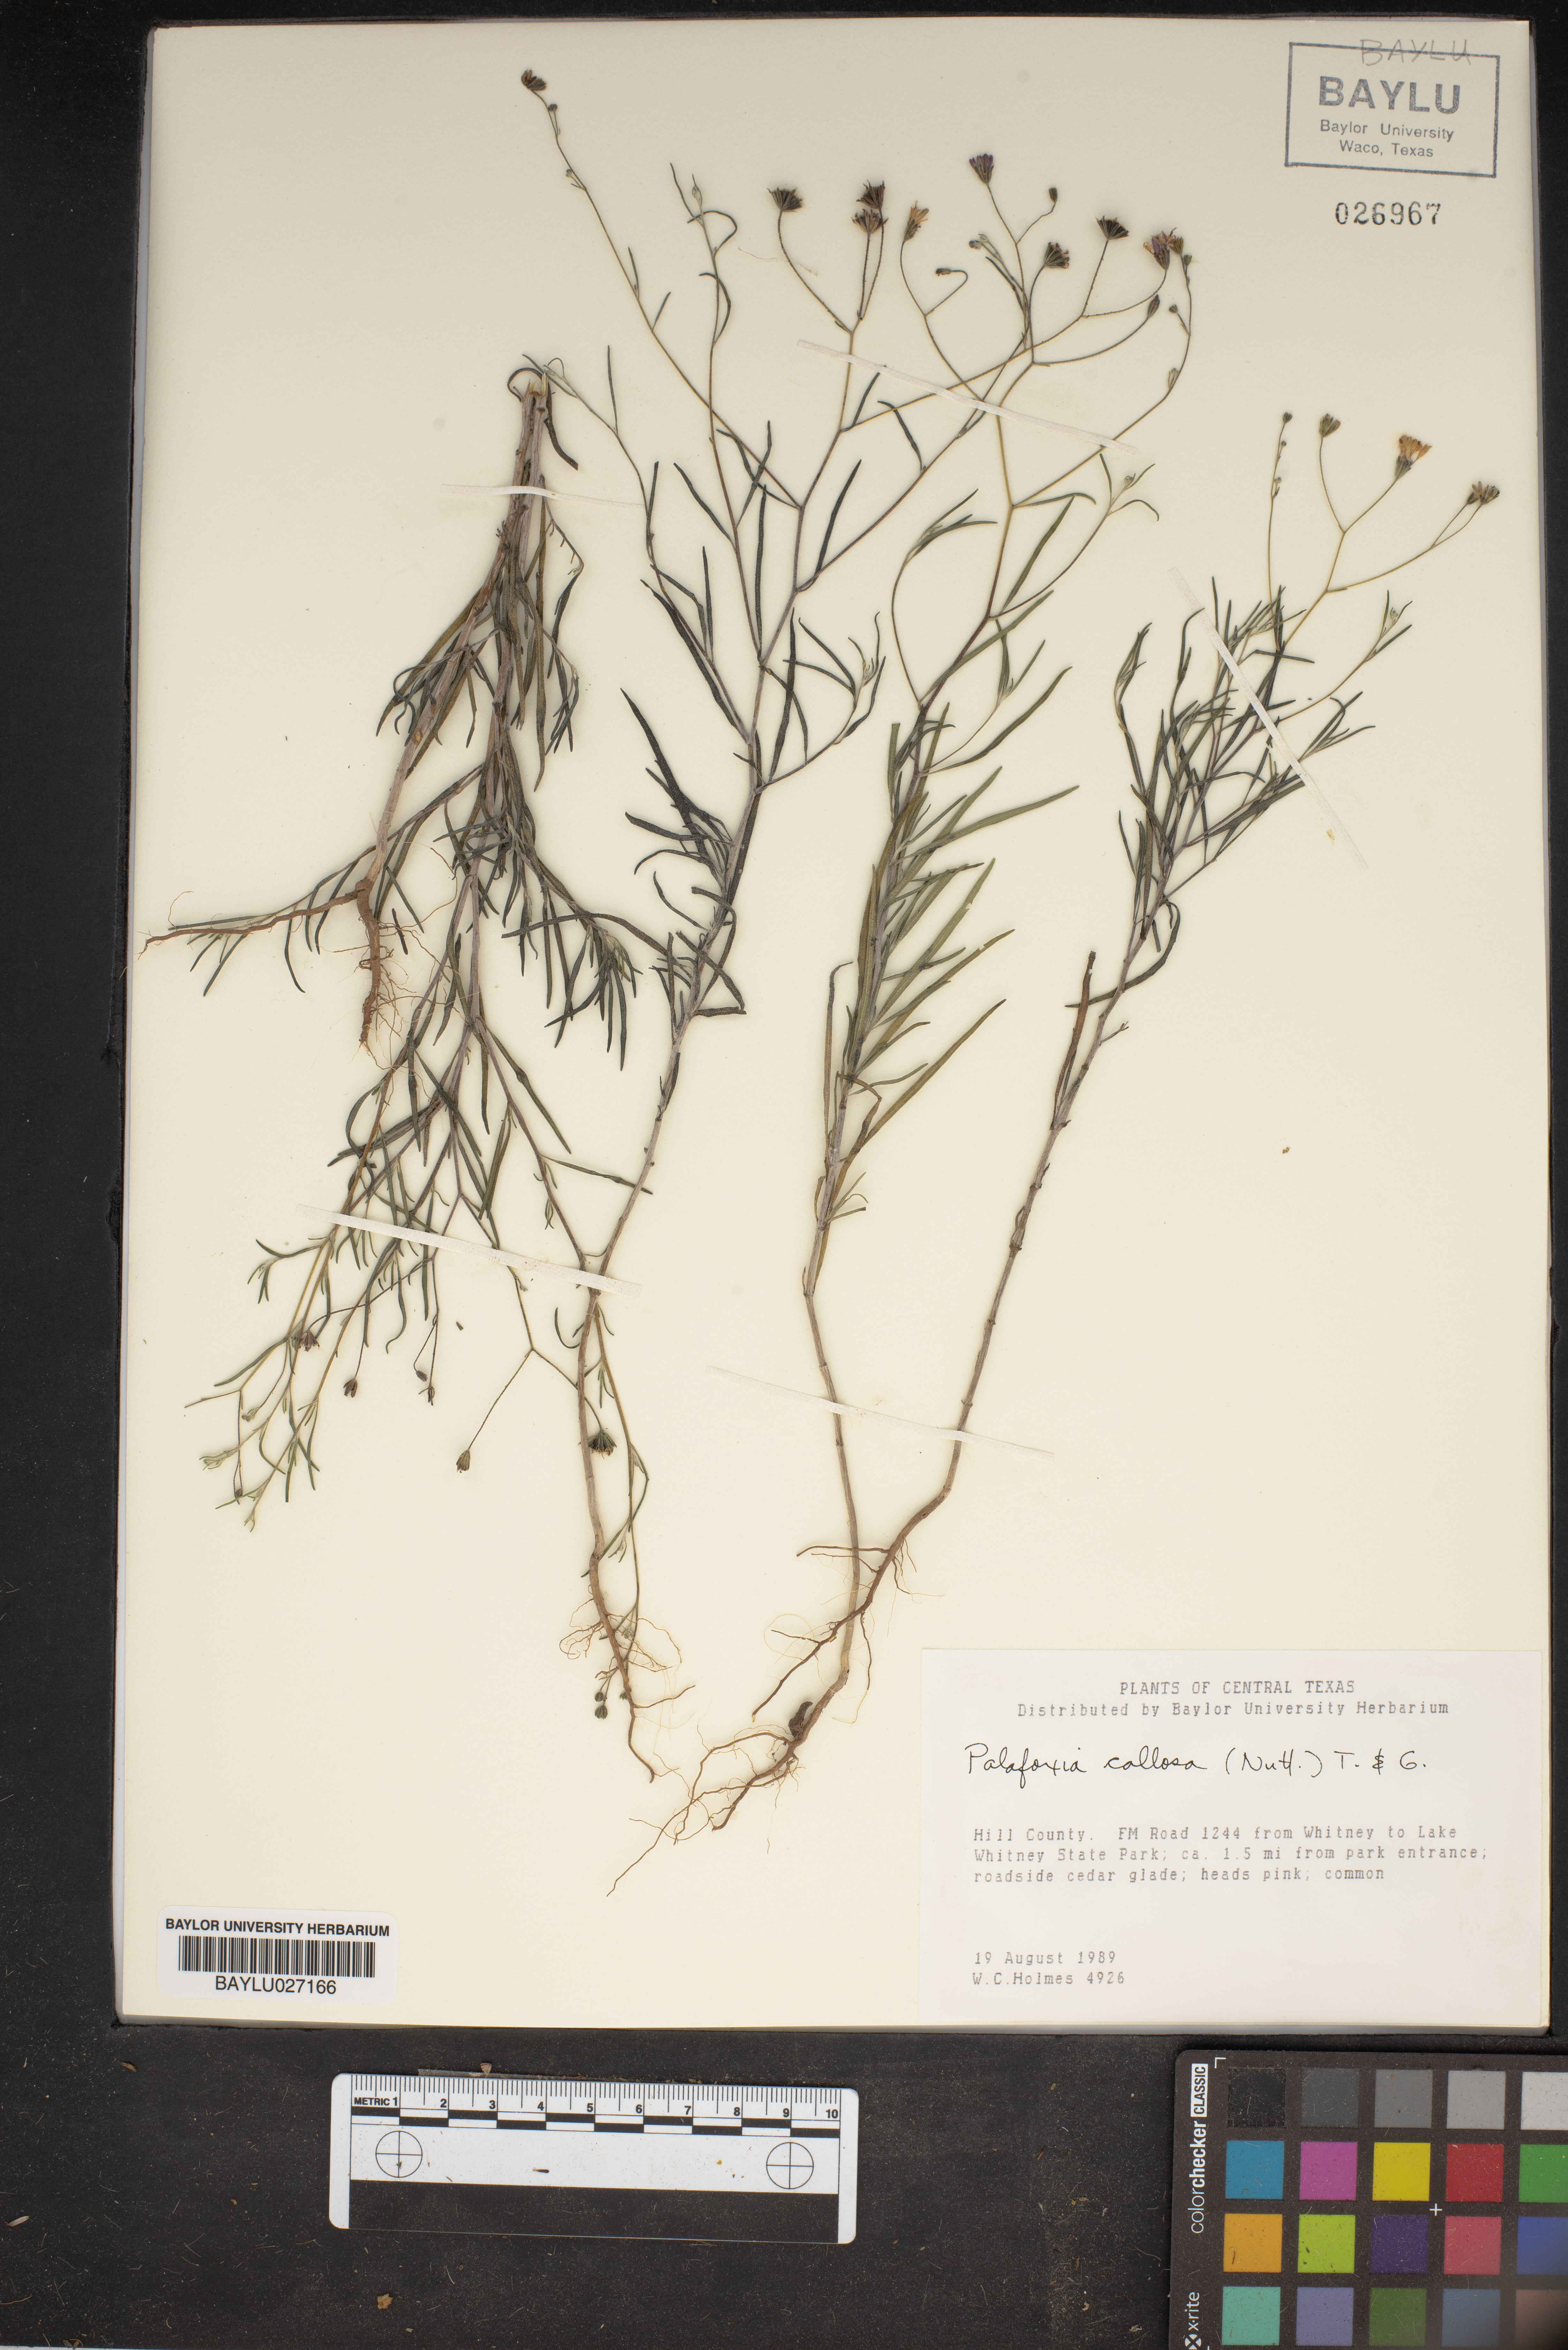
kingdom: Plantae
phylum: Tracheophyta
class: Magnoliopsida
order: Asterales
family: Asteraceae
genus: Palafoxia
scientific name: Palafoxia callosa
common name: Small palafox
